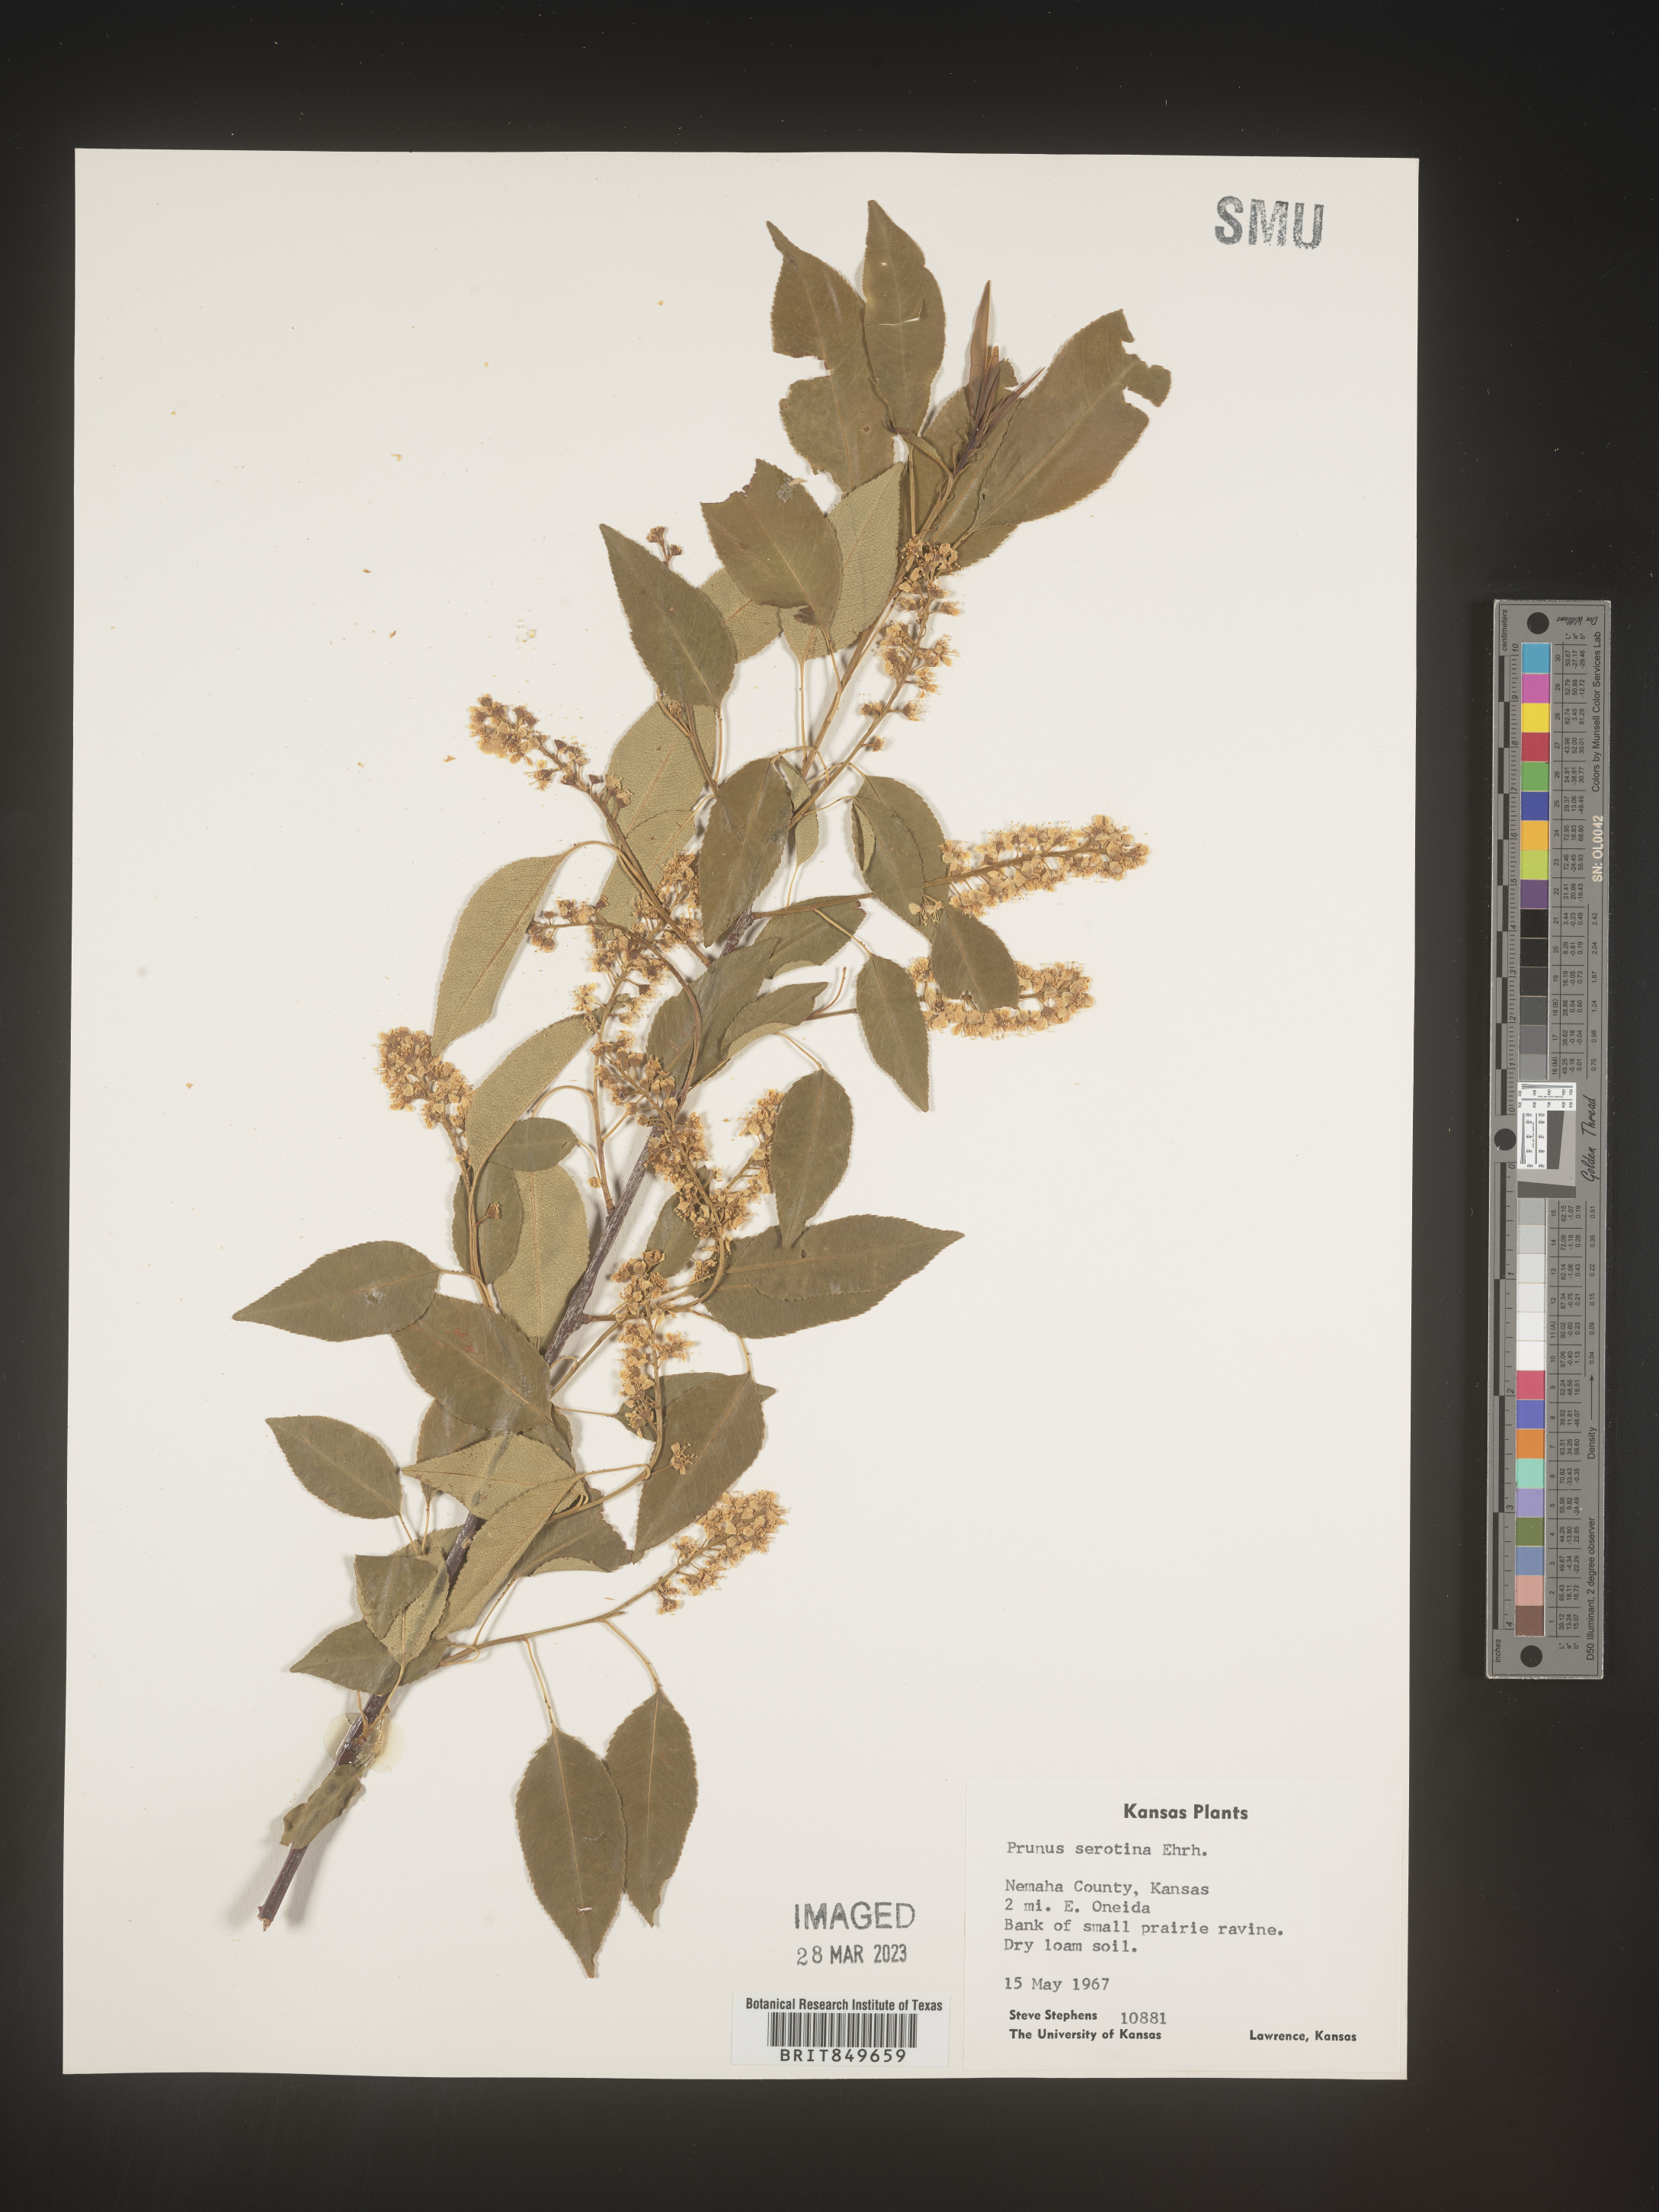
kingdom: Plantae
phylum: Tracheophyta
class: Magnoliopsida
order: Rosales
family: Rosaceae
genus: Prunus
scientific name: Prunus serotina
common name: Black cherry
